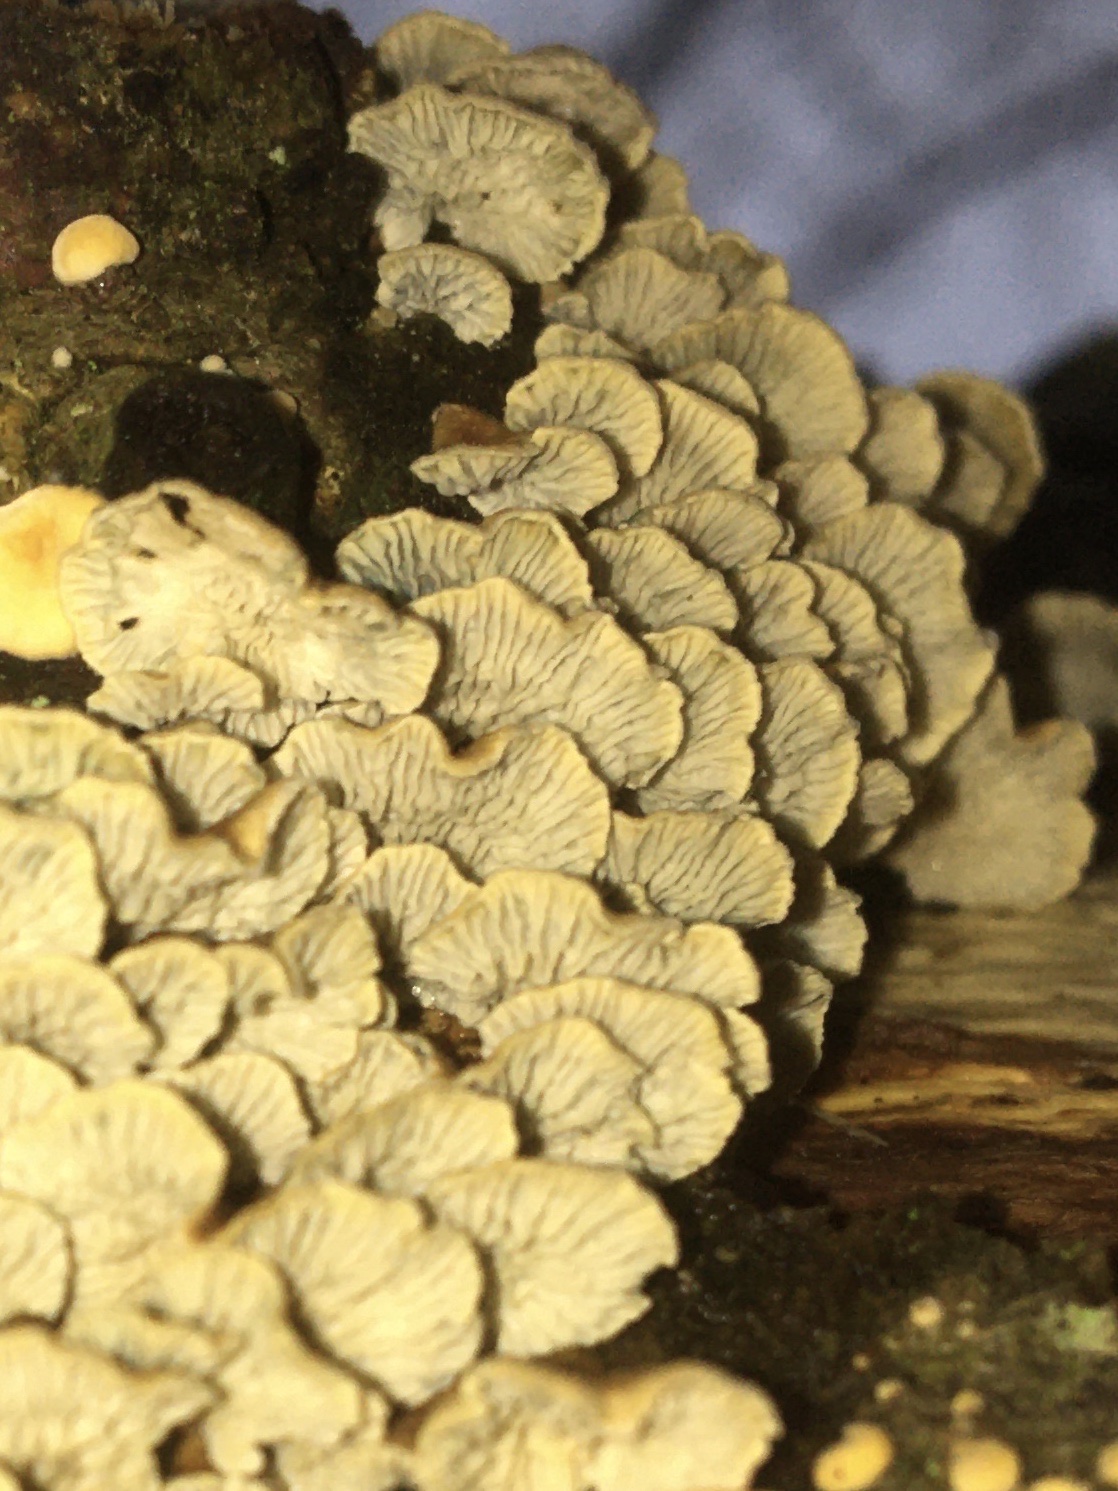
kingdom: Fungi
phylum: Basidiomycota
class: Agaricomycetes
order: Amylocorticiales
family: Amylocorticiaceae
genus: Plicaturopsis
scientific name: Plicaturopsis crispa
